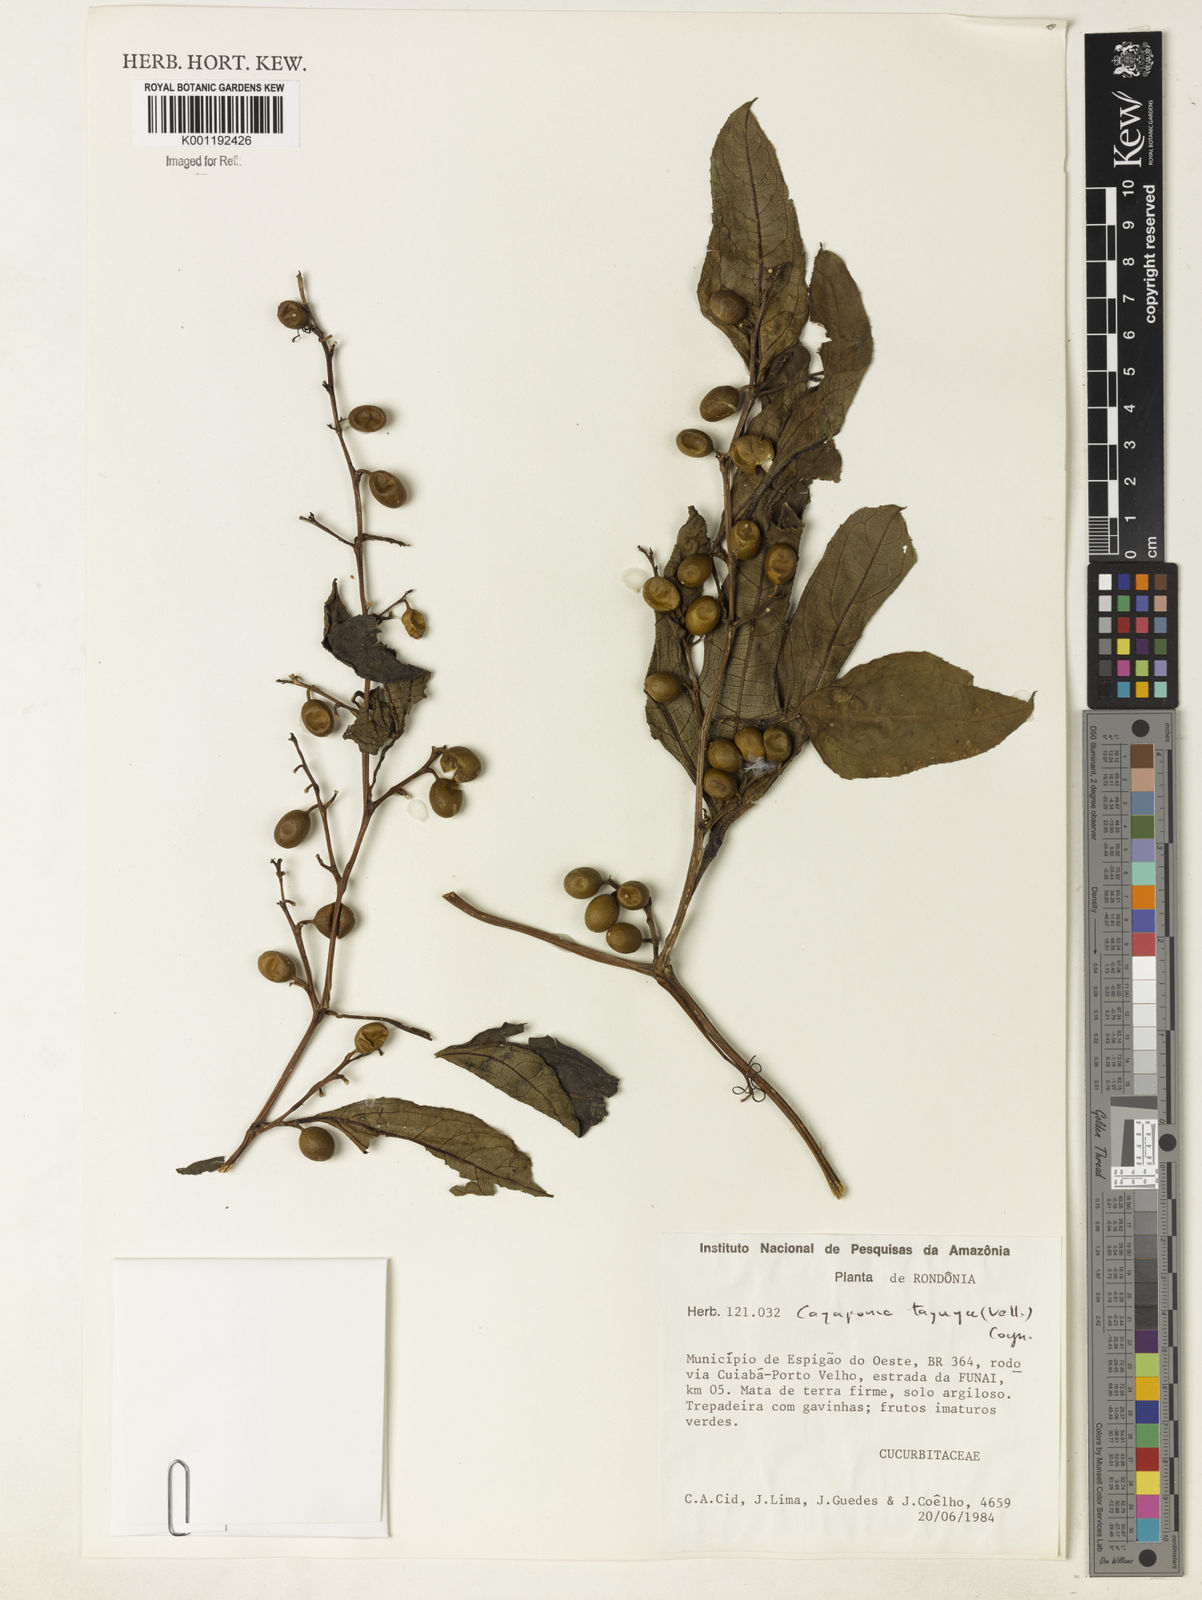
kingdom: Plantae
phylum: Tracheophyta
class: Magnoliopsida
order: Cucurbitales
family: Cucurbitaceae
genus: Cayaponia
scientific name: Cayaponia tayuya
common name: Tayuya
